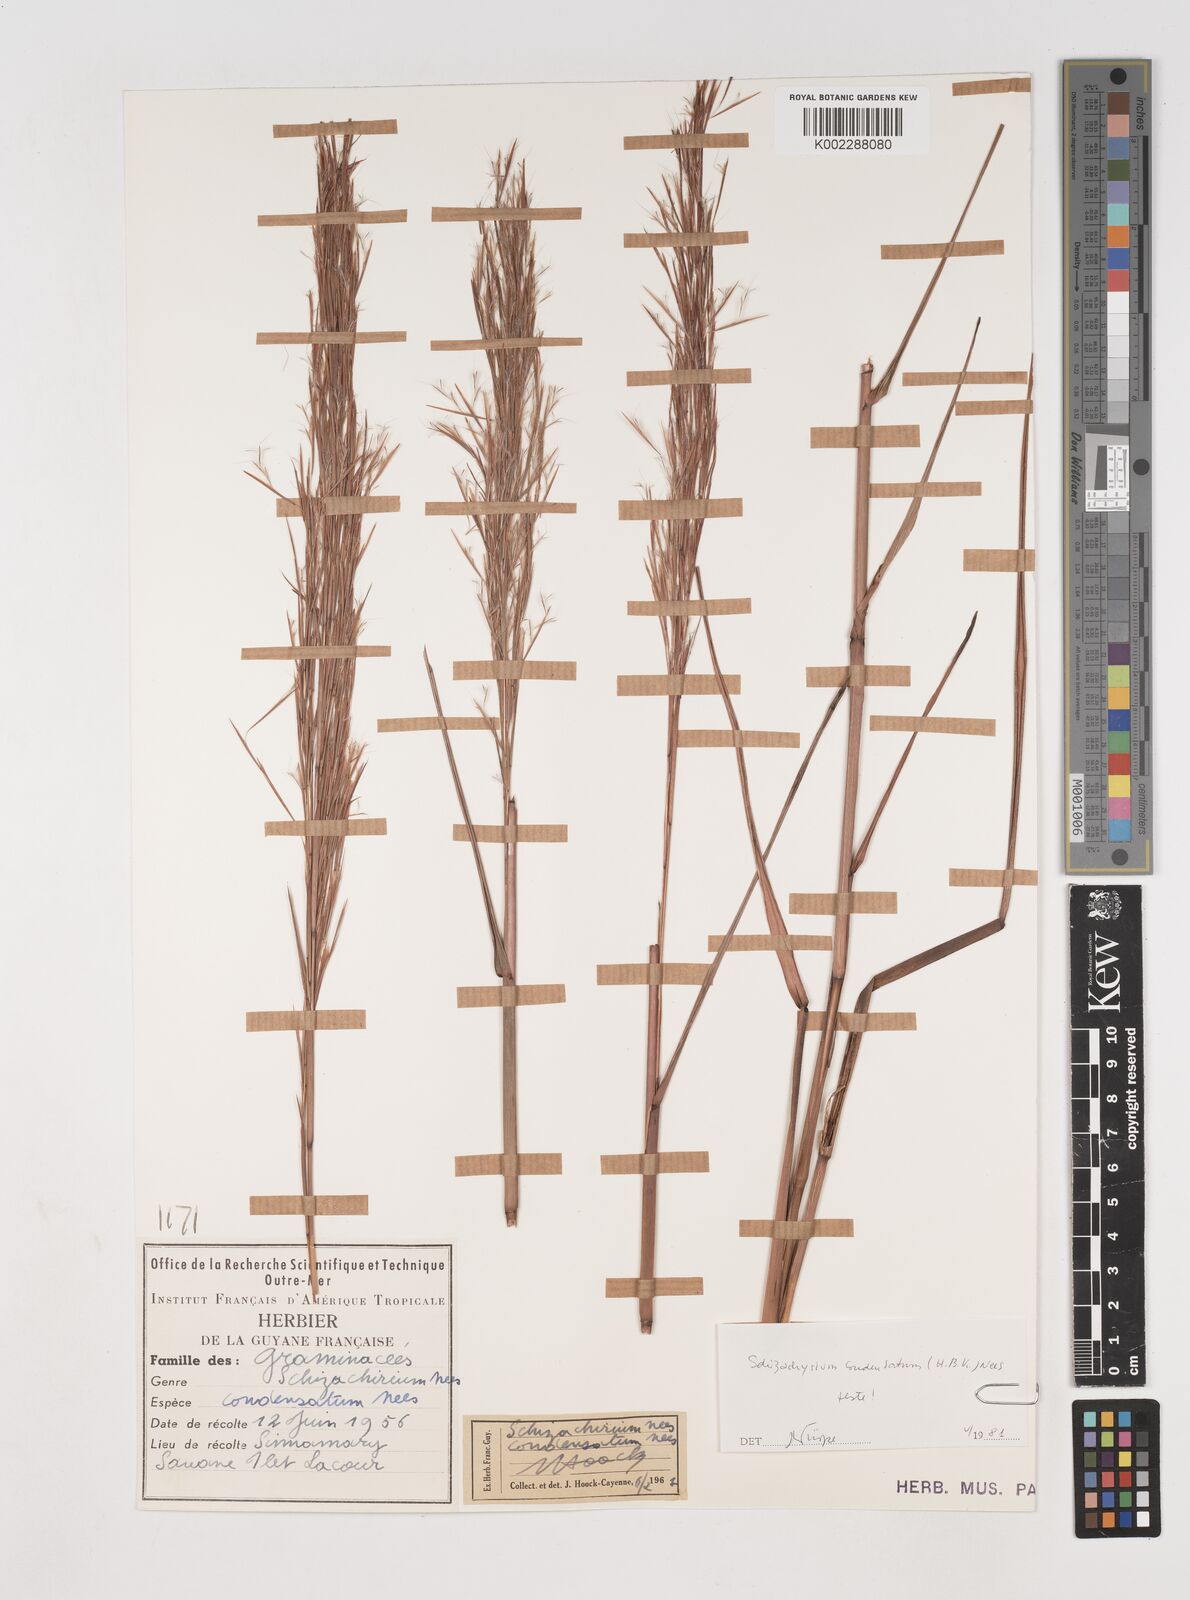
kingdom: Plantae
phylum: Tracheophyta
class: Liliopsida
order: Poales
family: Poaceae
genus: Schizachyrium
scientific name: Schizachyrium condensatum
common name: Bush beardgrass
